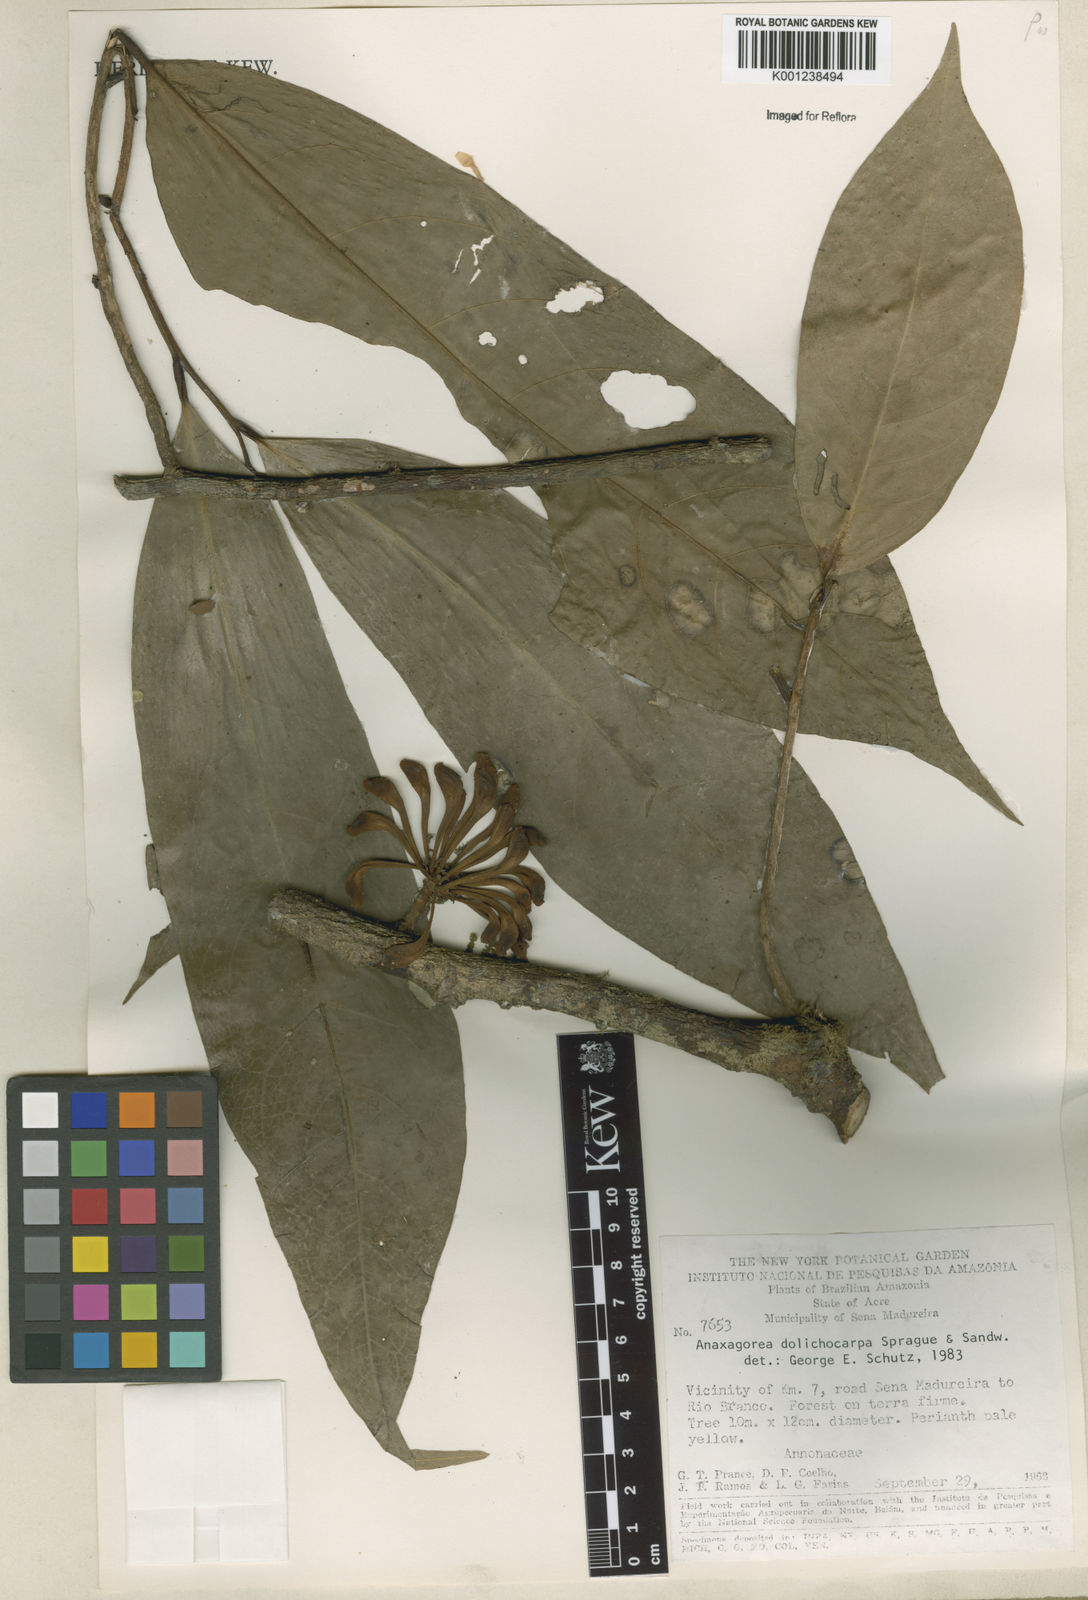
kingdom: Plantae
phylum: Tracheophyta
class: Magnoliopsida
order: Magnoliales
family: Annonaceae
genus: Anaxagorea
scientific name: Anaxagorea dolichocarpa
